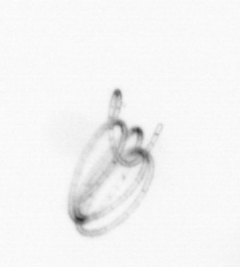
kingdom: Chromista
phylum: Ochrophyta
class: Bacillariophyceae
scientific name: Bacillariophyceae
